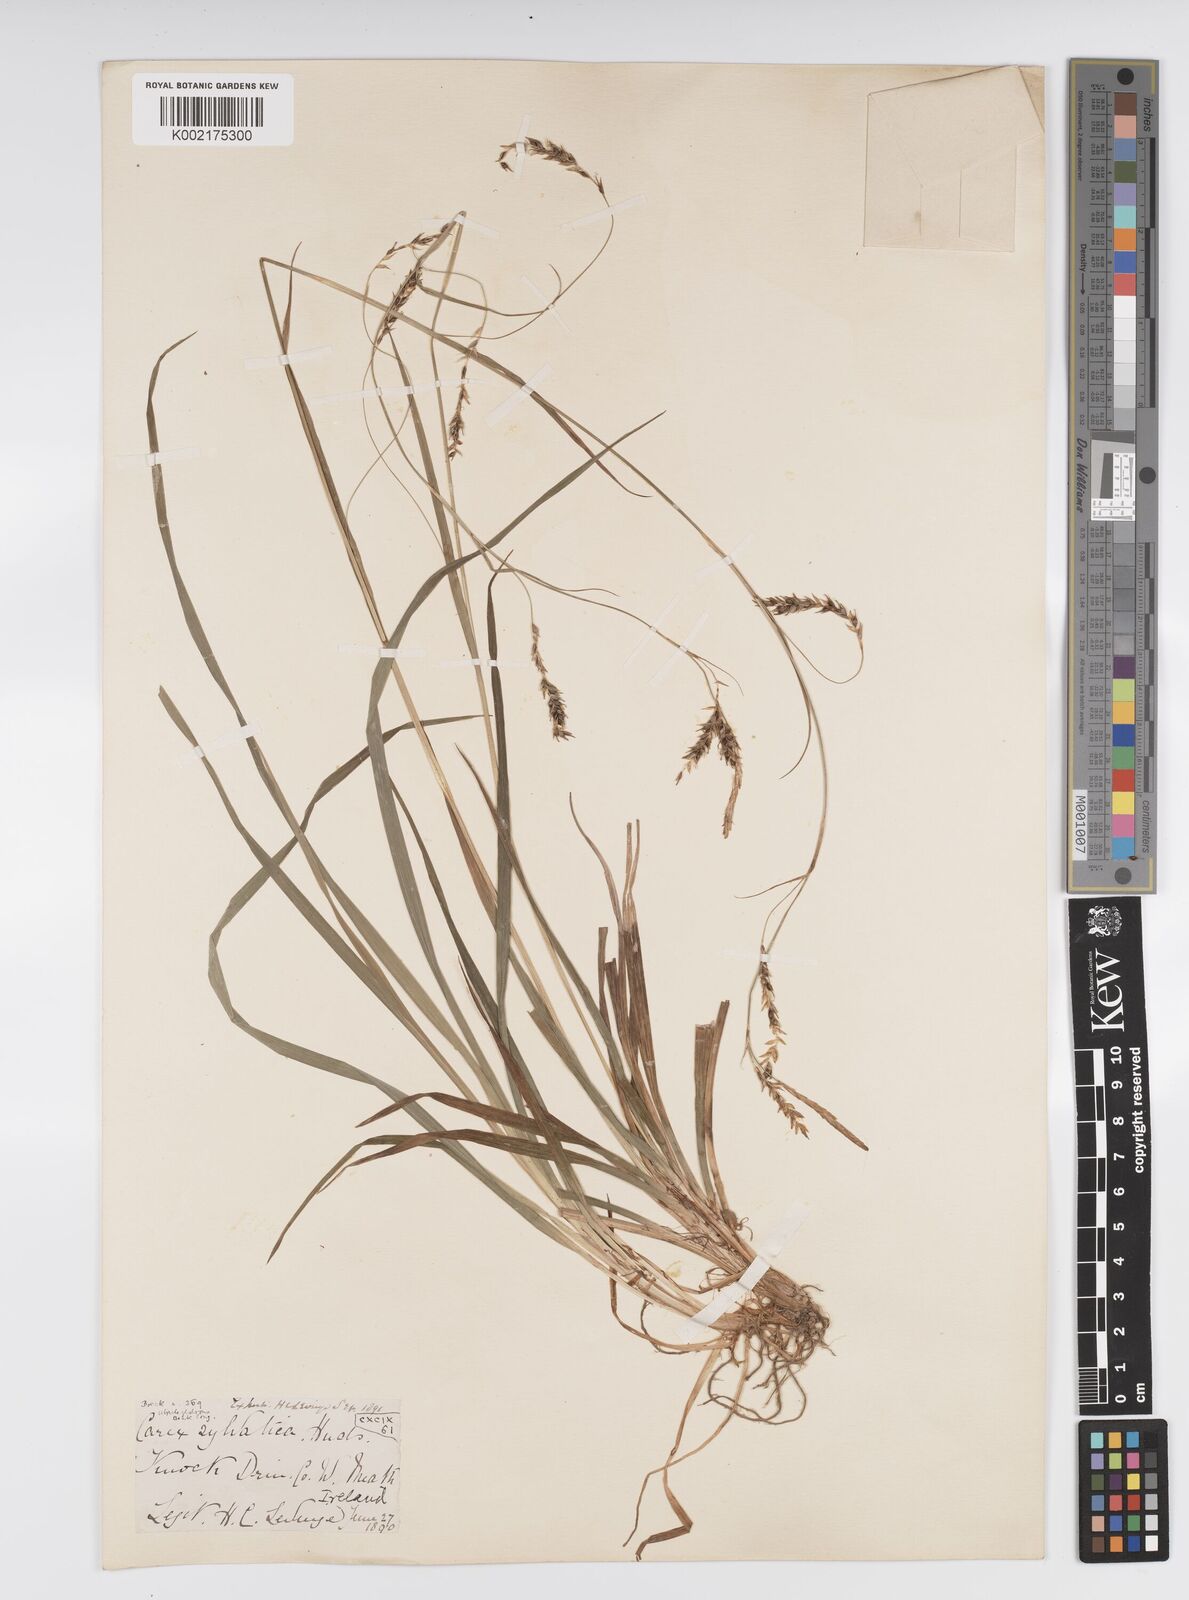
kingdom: Plantae
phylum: Tracheophyta
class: Liliopsida
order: Poales
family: Cyperaceae
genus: Carex
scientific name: Carex sylvatica
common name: Wood-sedge
